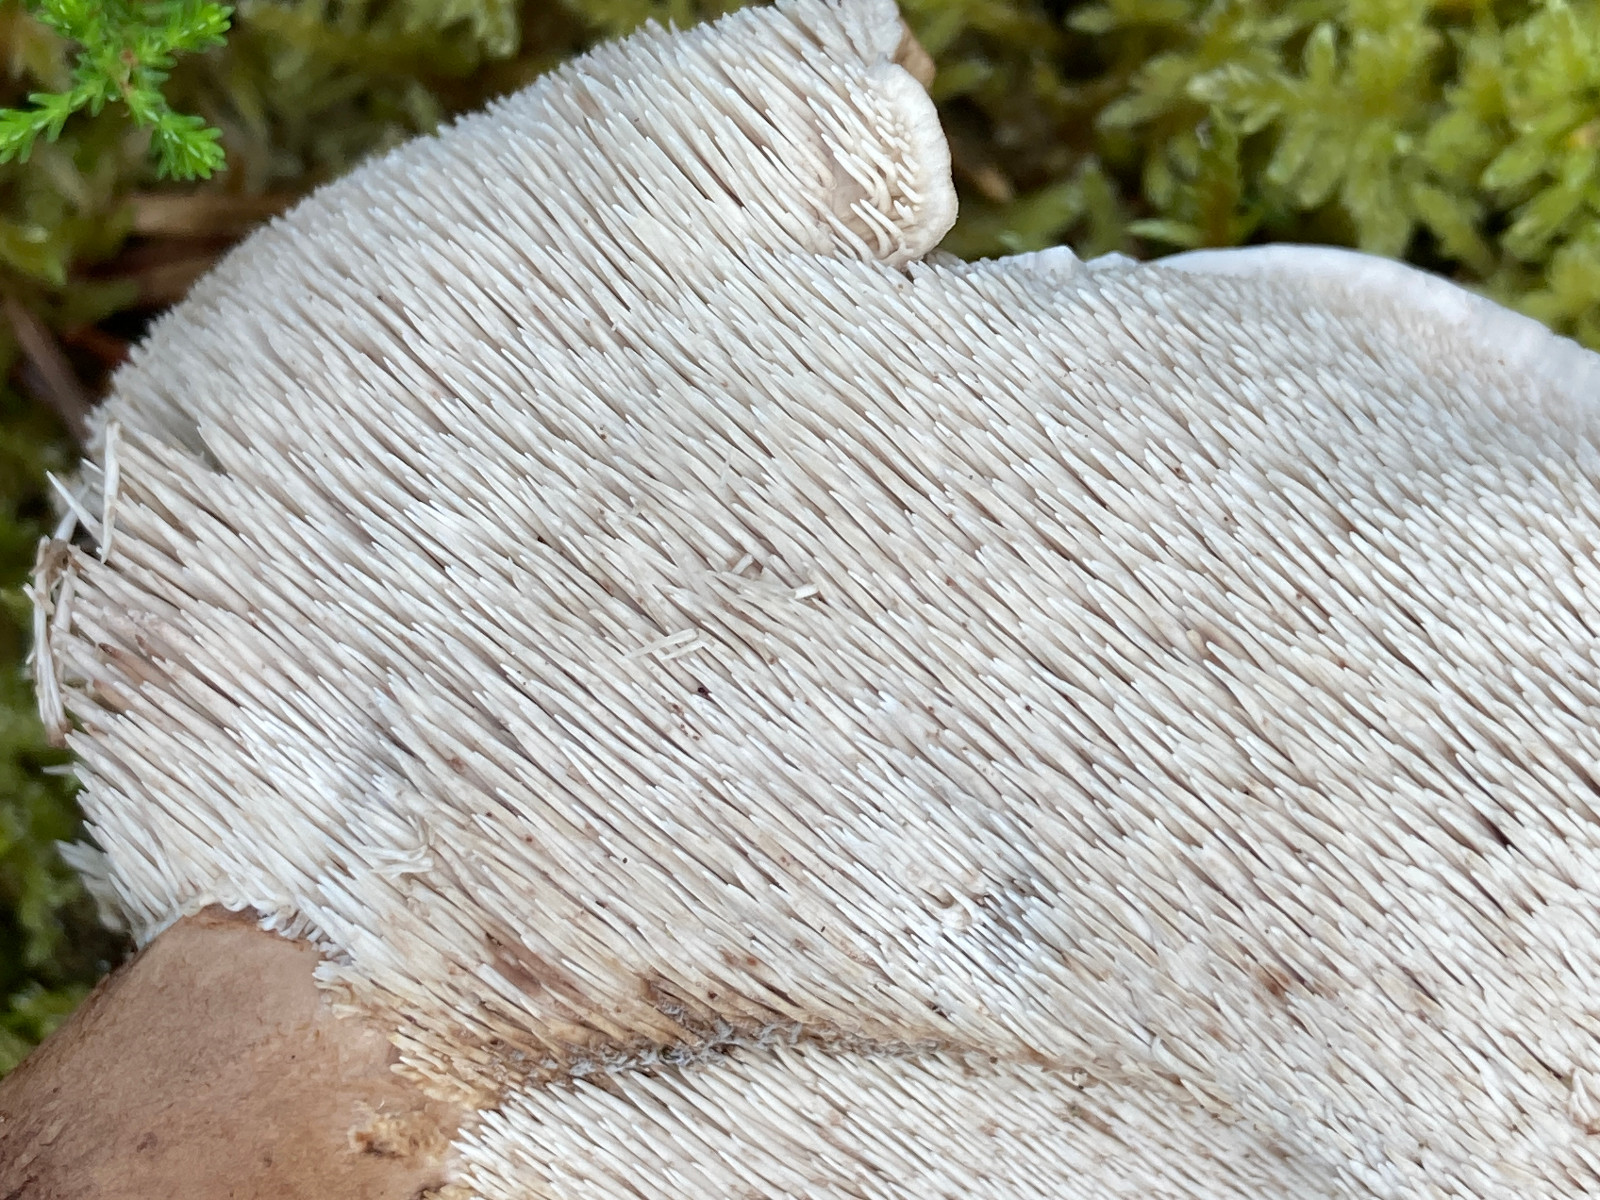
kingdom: Fungi
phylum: Basidiomycota
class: Agaricomycetes
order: Thelephorales
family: Thelephoraceae
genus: Phellodon
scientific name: Phellodon violascens
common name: violetbrun duftpigsvamp
